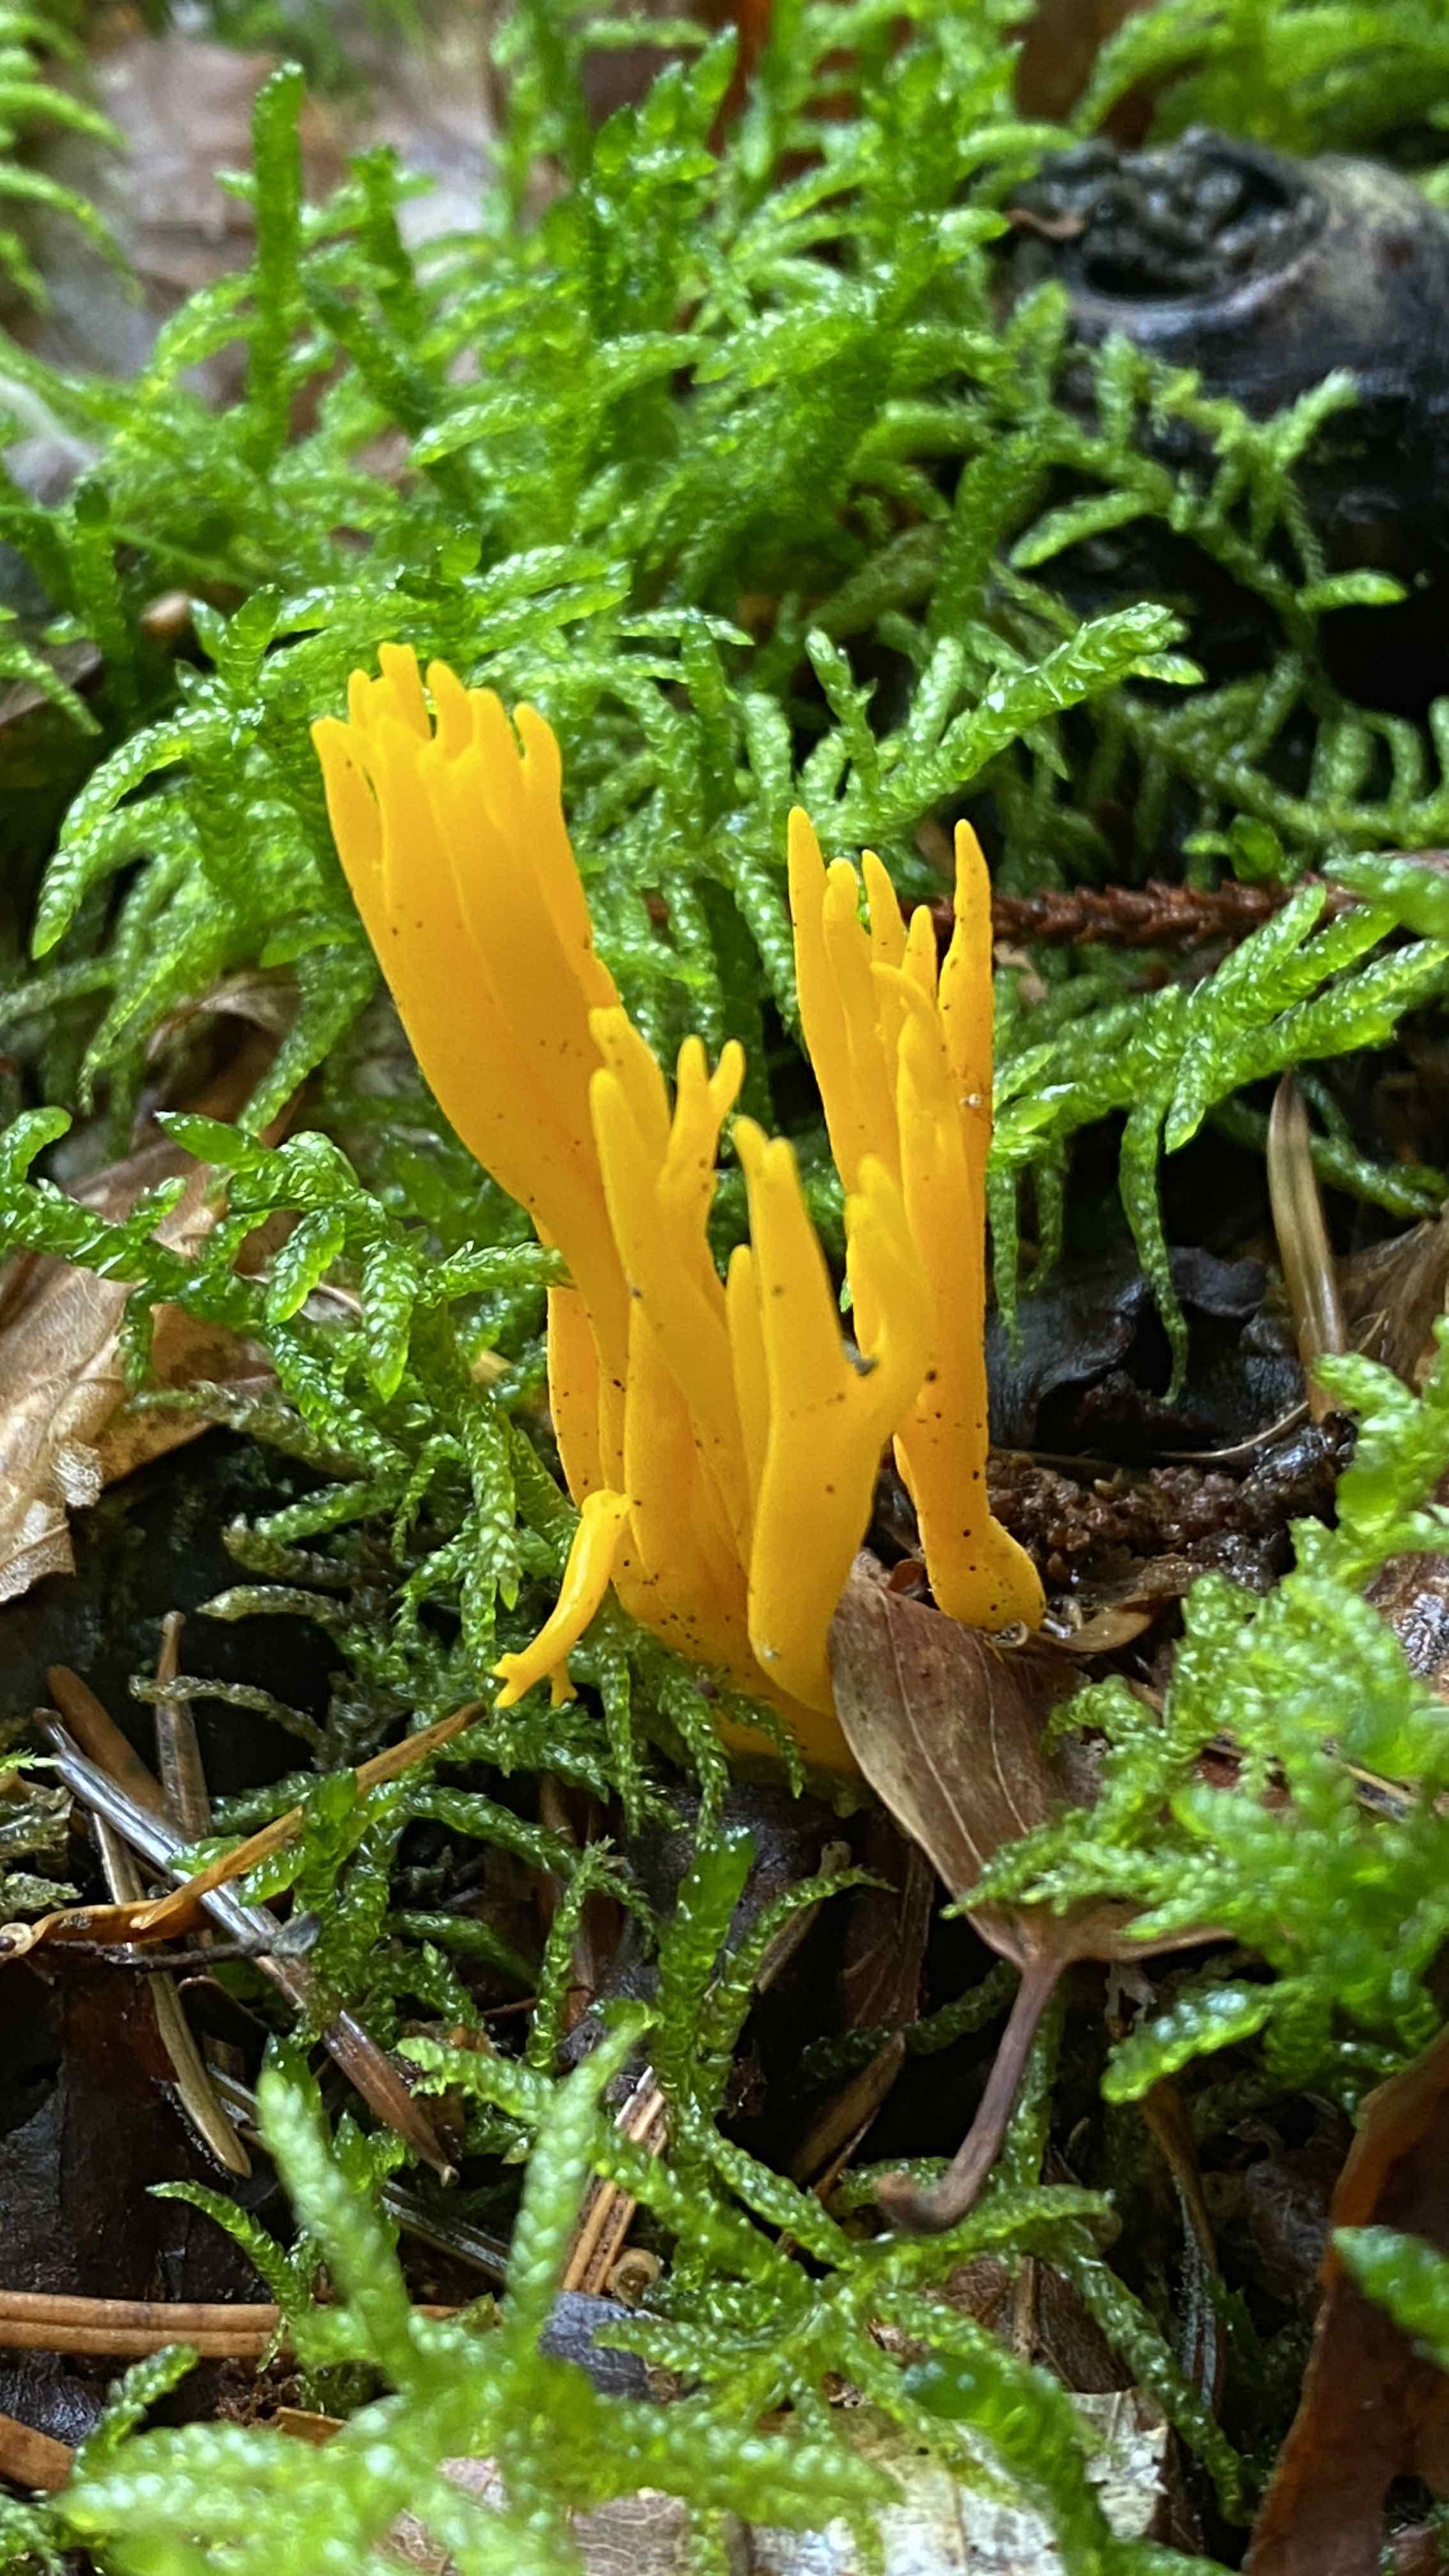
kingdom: Fungi
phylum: Basidiomycota
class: Dacrymycetes
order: Dacrymycetales
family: Dacrymycetaceae
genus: Calocera
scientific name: Calocera viscosa
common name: almindelig guldgaffel
